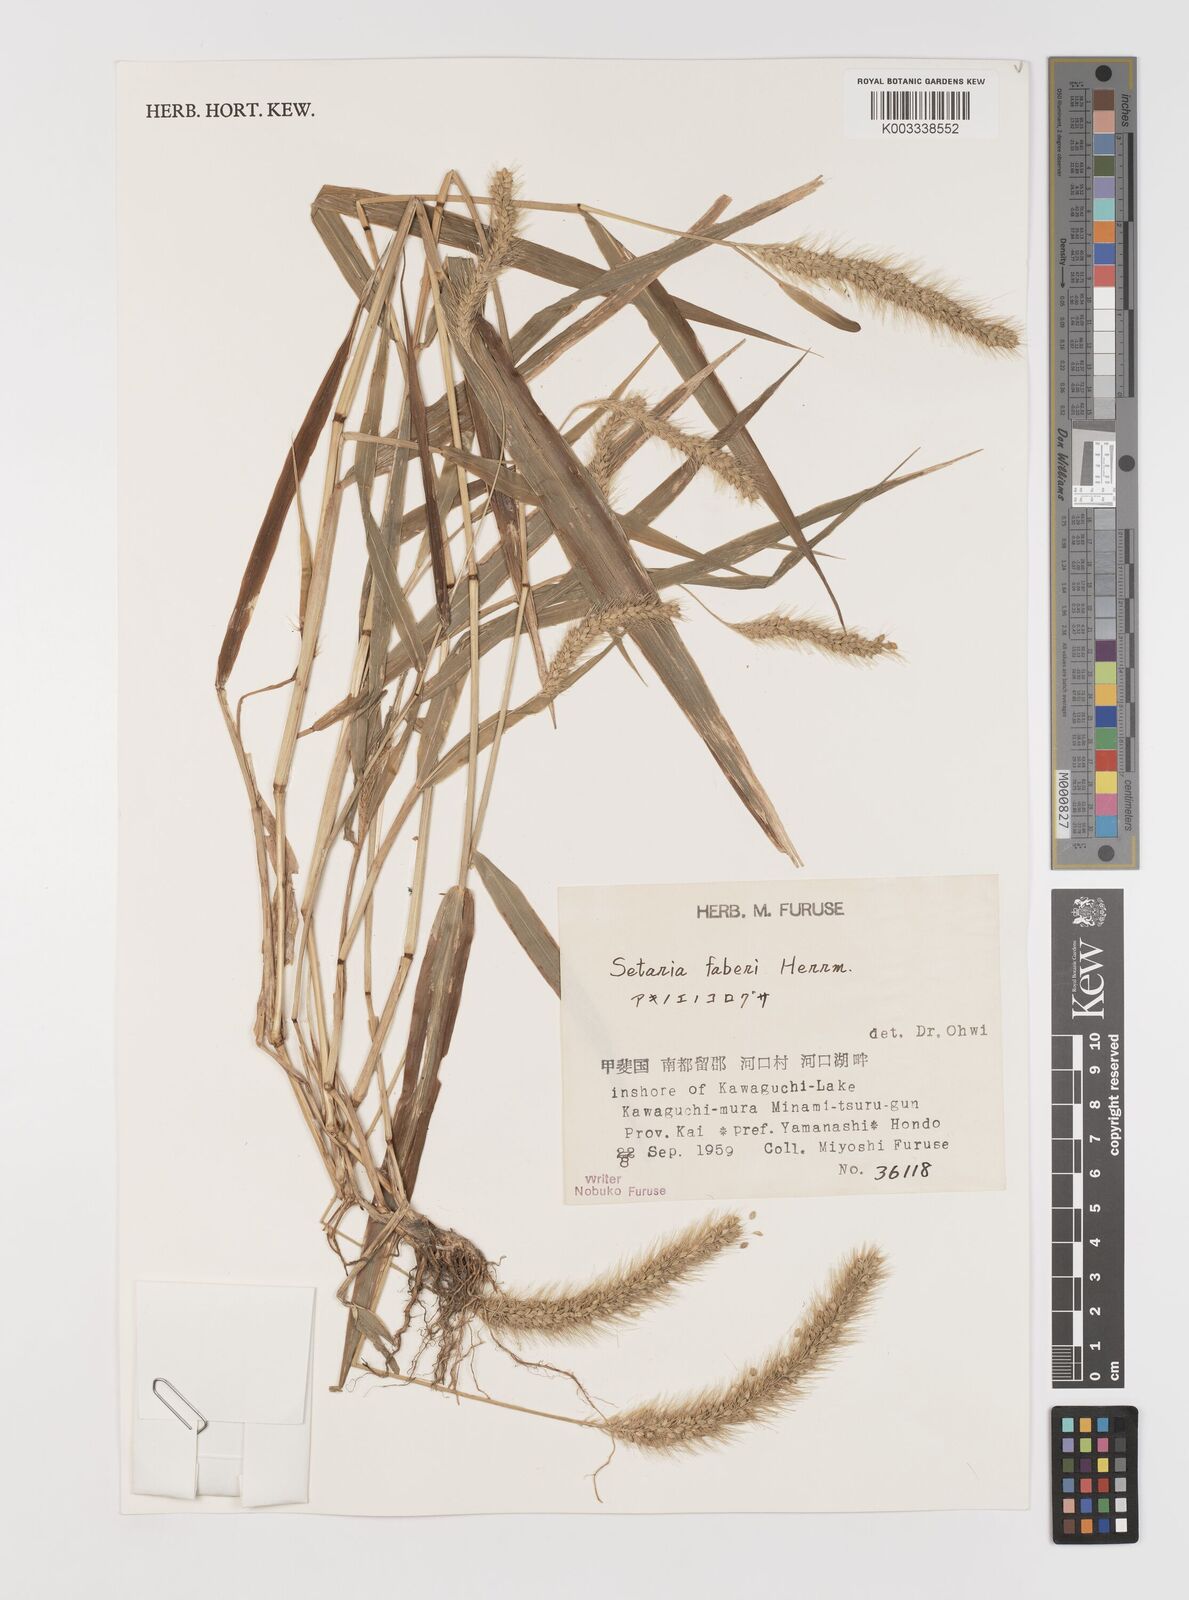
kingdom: Plantae
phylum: Tracheophyta
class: Liliopsida
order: Poales
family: Poaceae
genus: Setaria
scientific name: Setaria faberi
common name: Nodding bristle-grass
